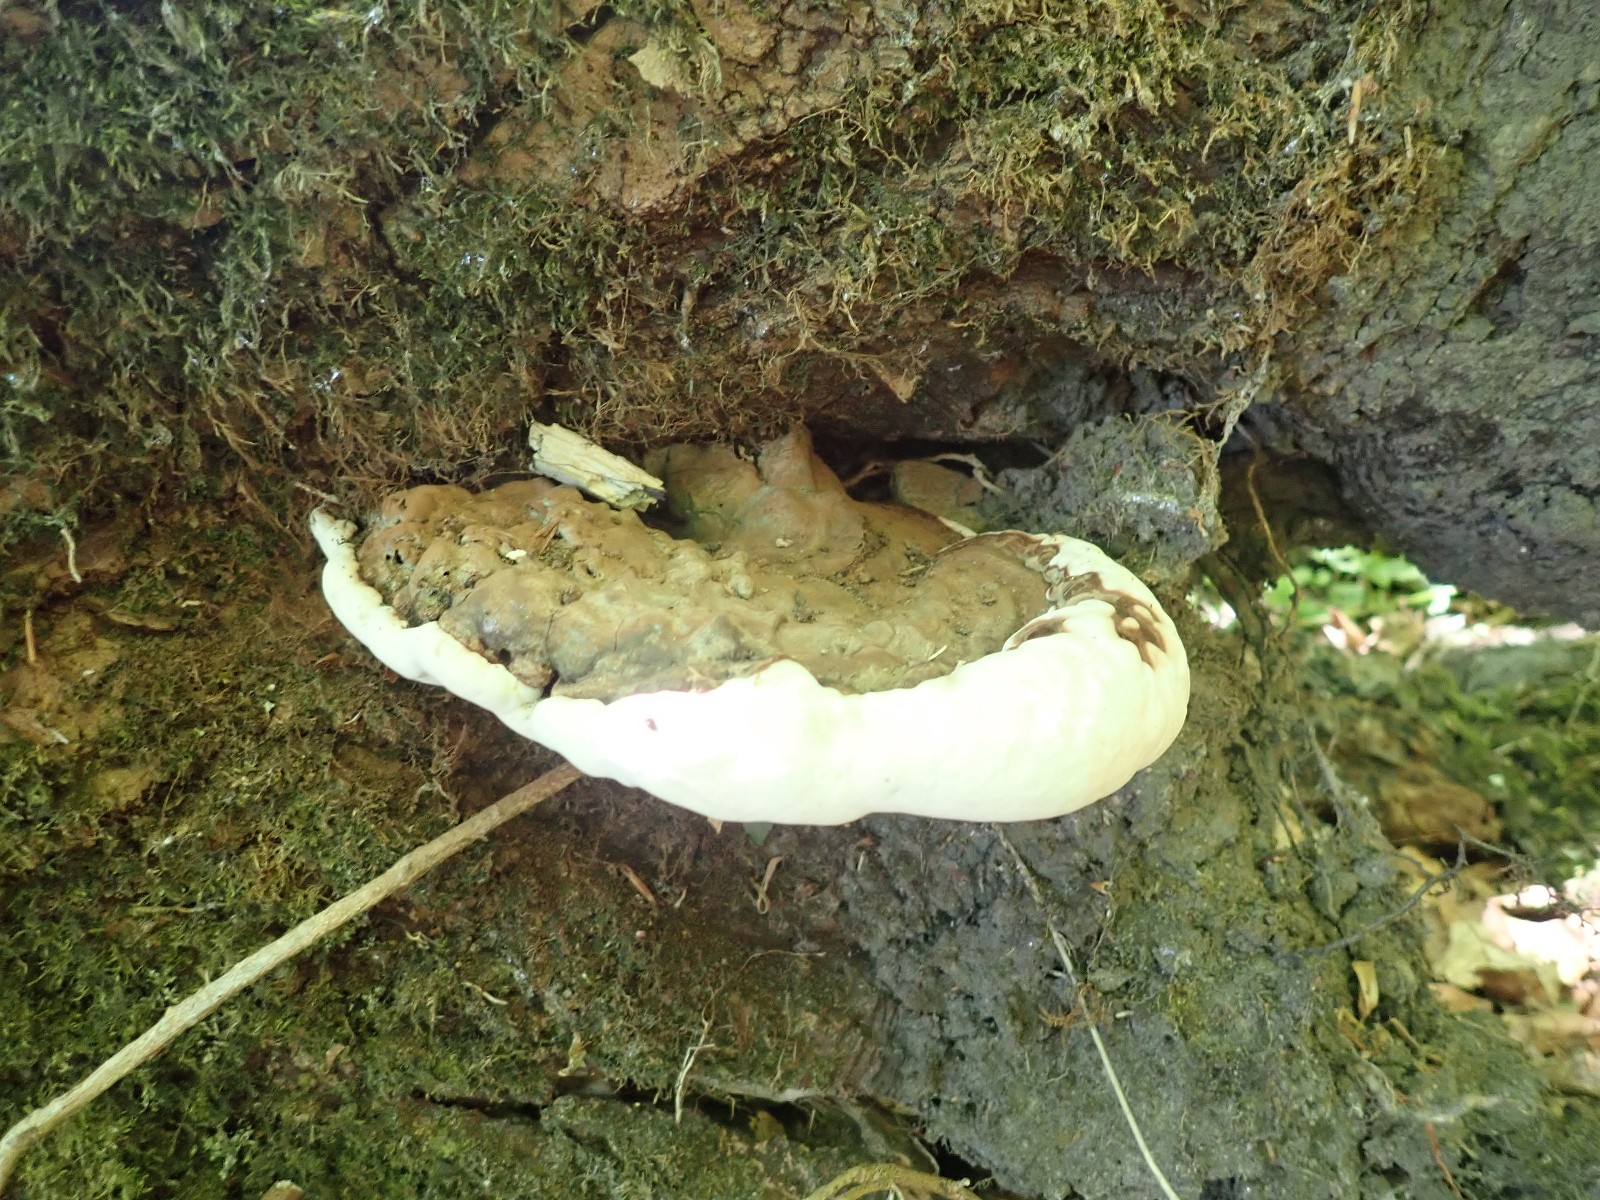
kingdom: Fungi
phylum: Basidiomycota
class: Agaricomycetes
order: Polyporales
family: Polyporaceae
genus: Ganoderma
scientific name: Ganoderma applanatum
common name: flad lakporesvamp
